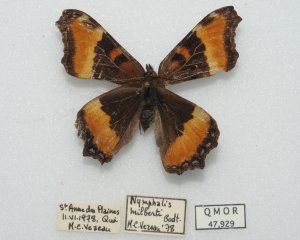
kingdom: Animalia
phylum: Arthropoda
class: Insecta
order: Lepidoptera
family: Nymphalidae
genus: Aglais
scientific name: Aglais milberti
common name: Milbert's Tortoiseshell
